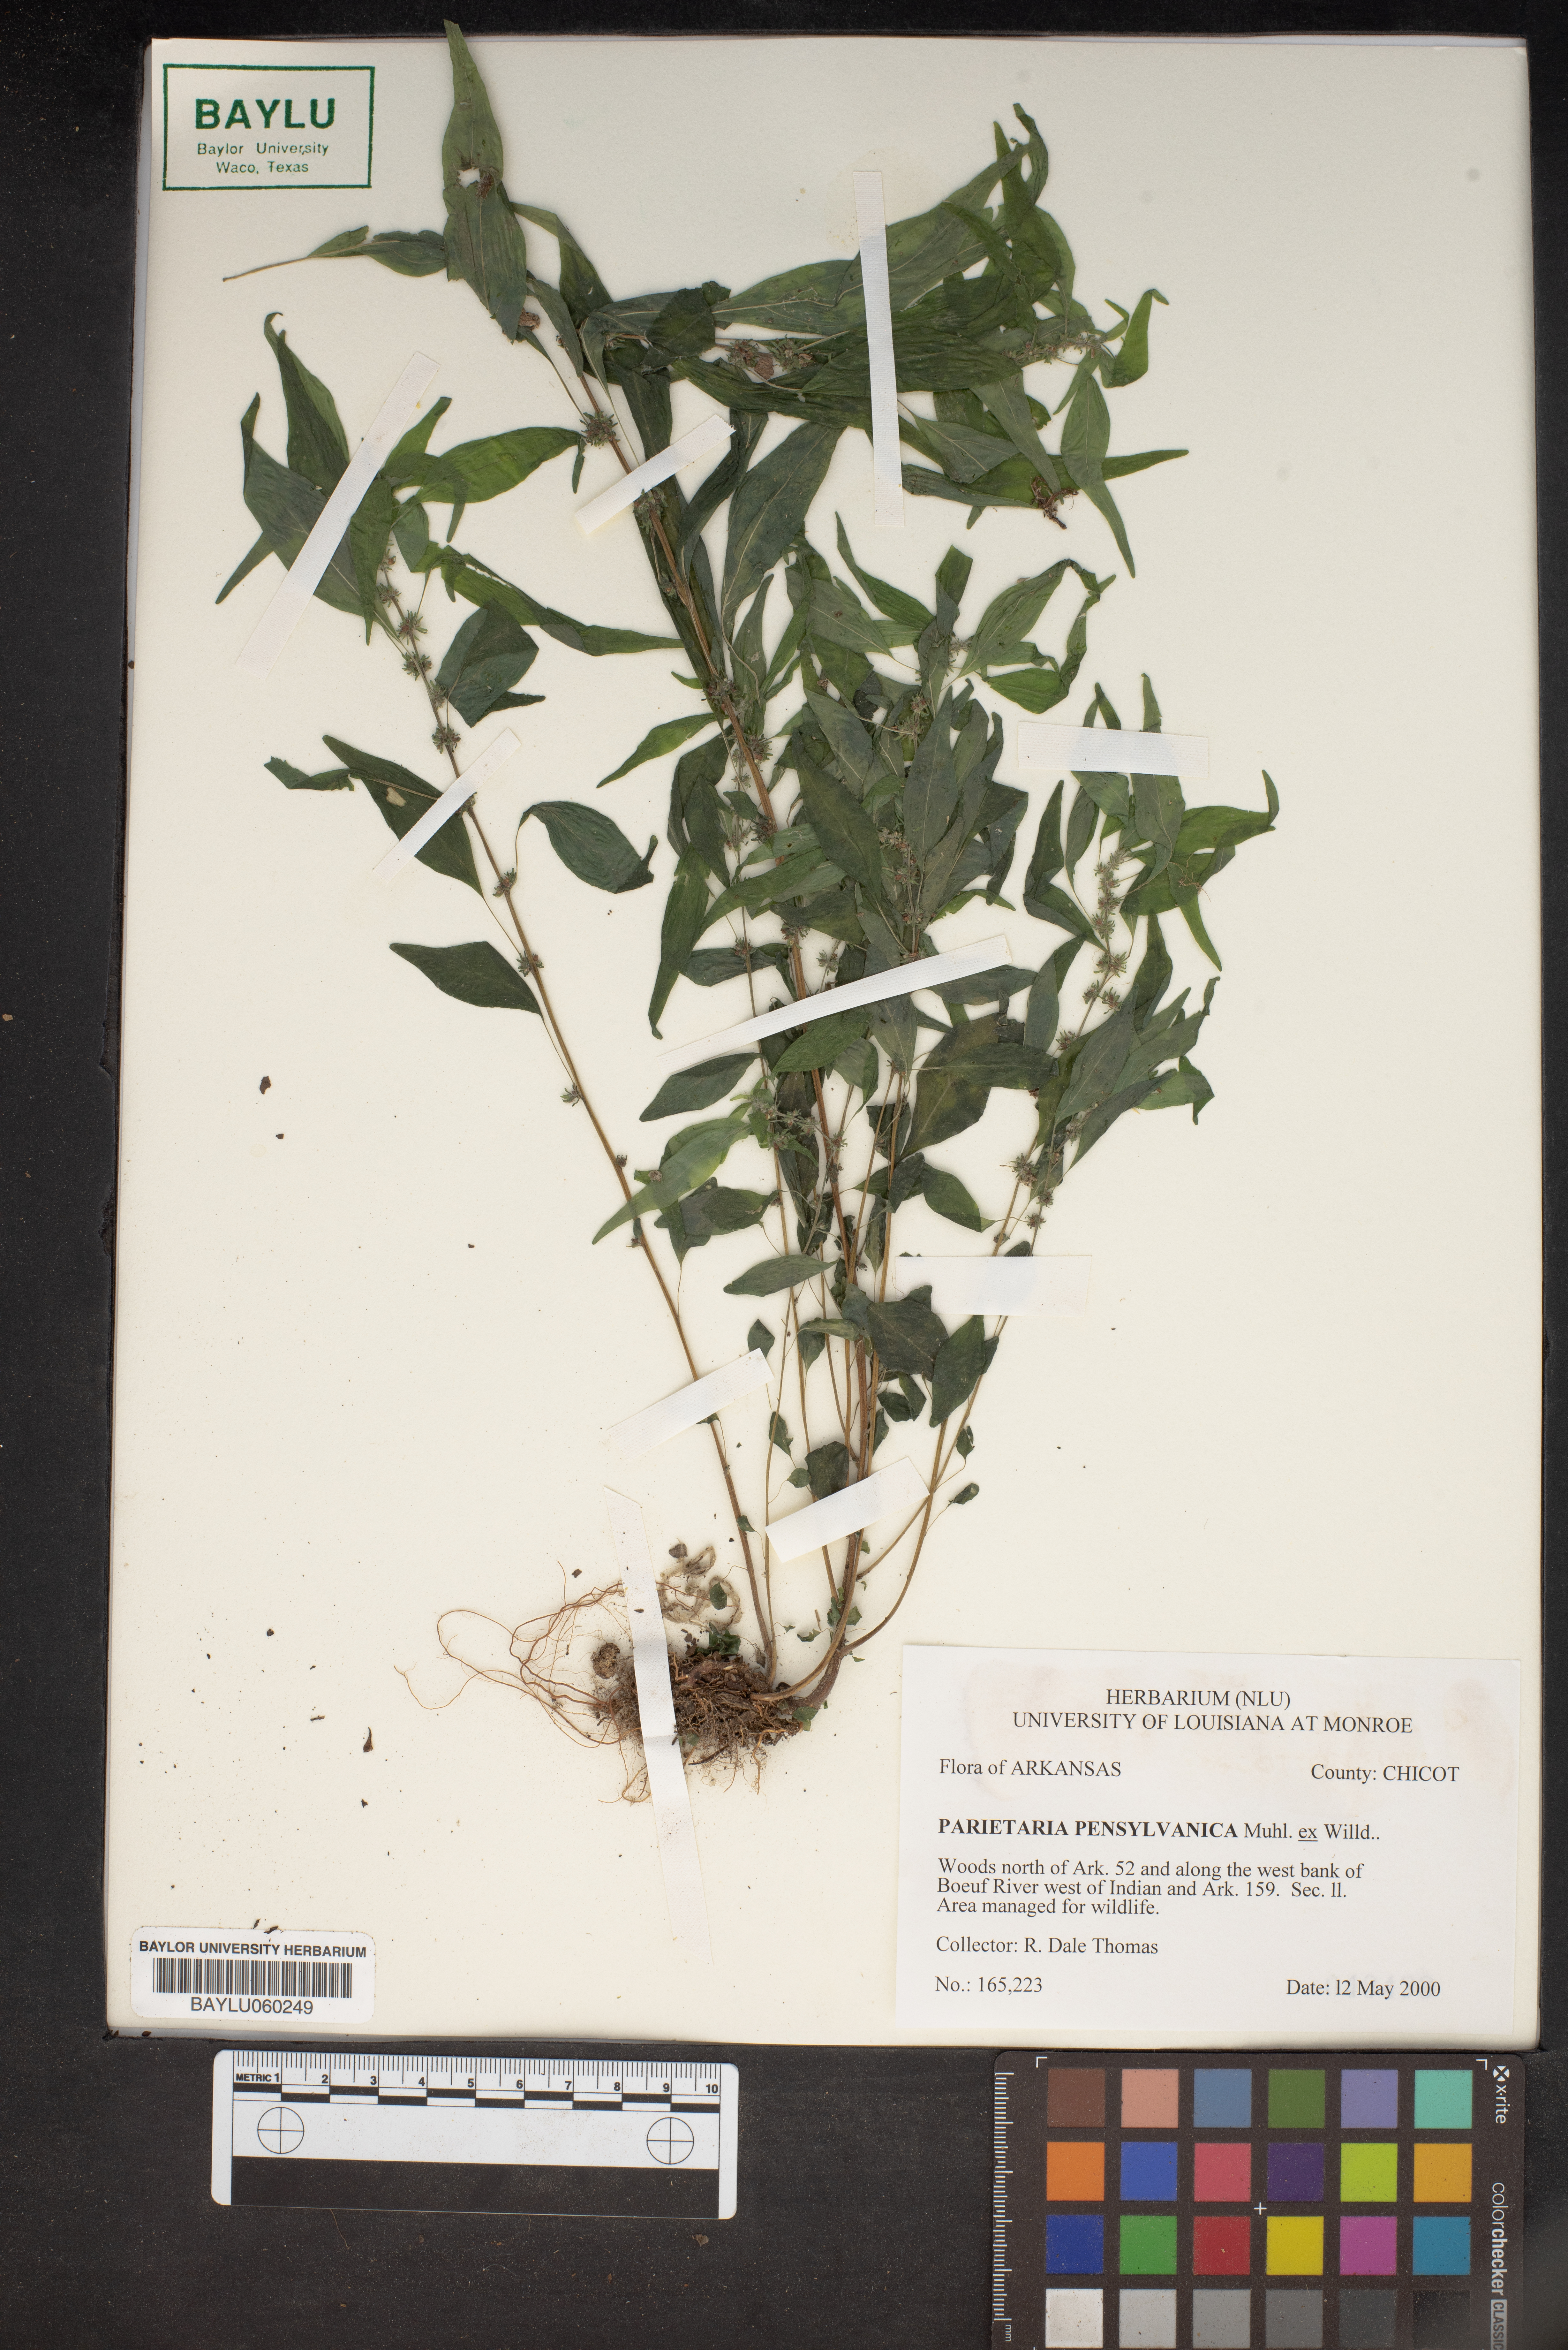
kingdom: Plantae
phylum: Tracheophyta
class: Magnoliopsida
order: Rosales
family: Urticaceae
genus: Parietaria
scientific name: Parietaria pensylvanica
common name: Pennsylvania pellitory
